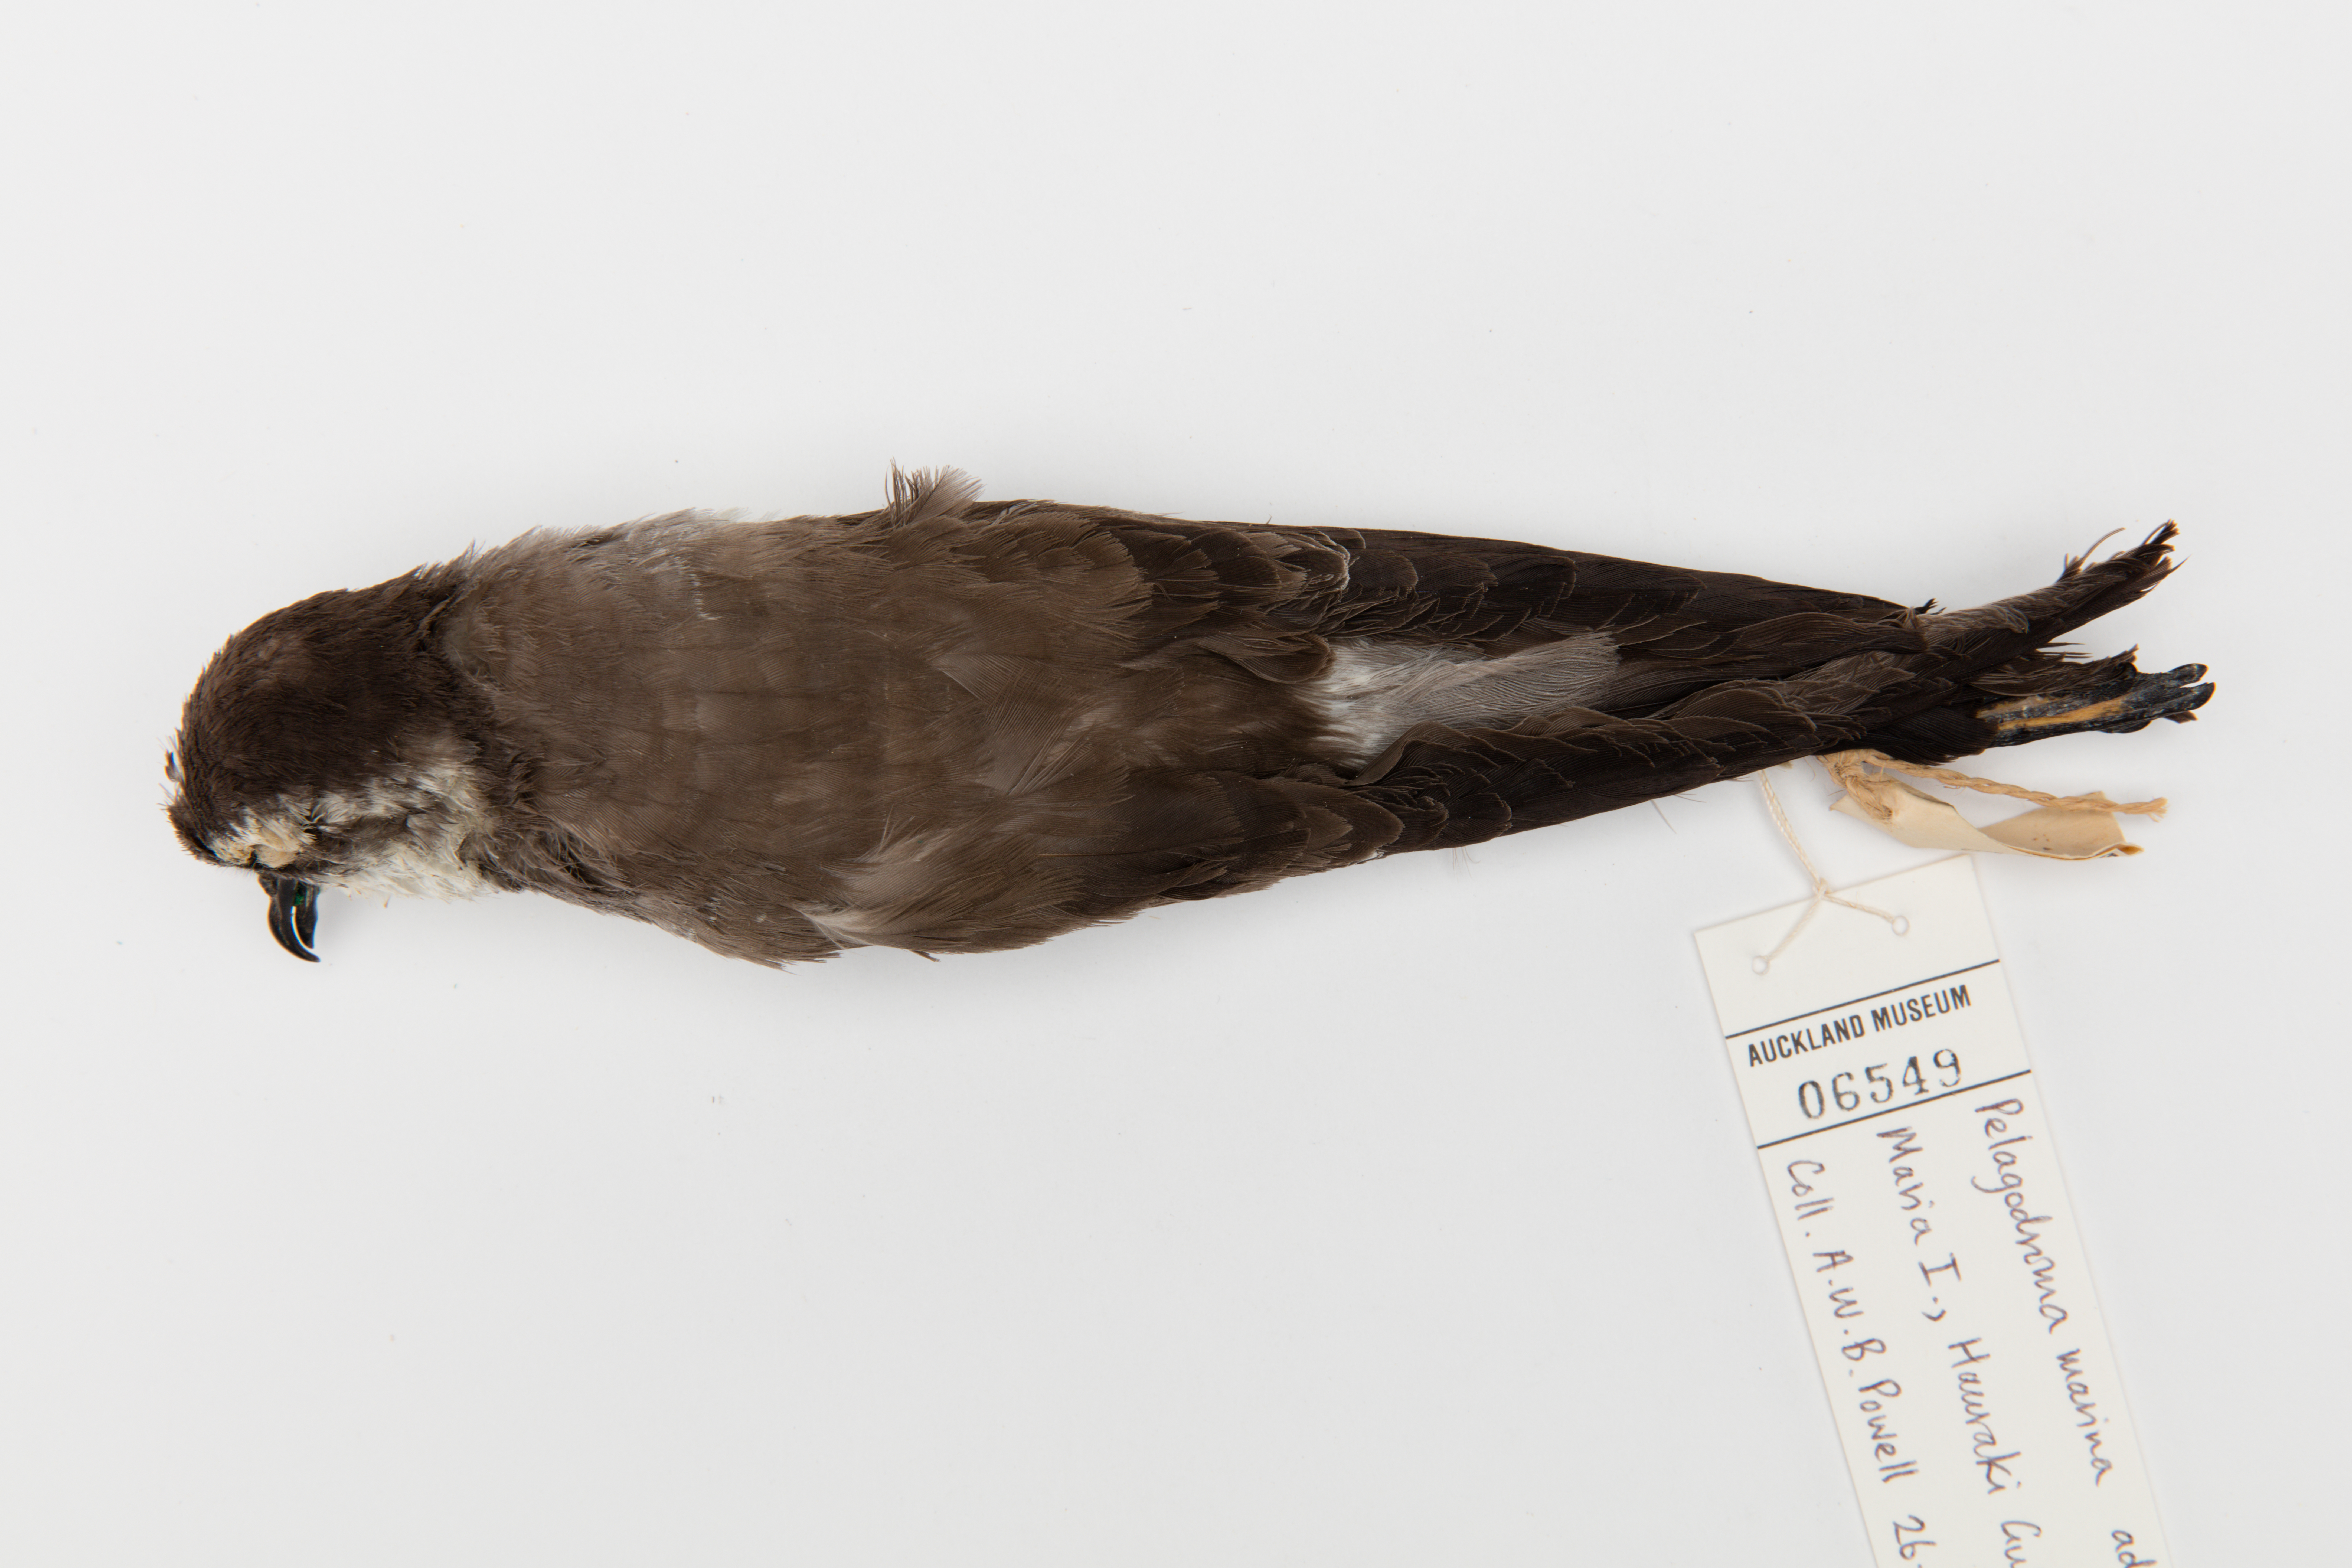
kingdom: Animalia
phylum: Chordata
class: Aves
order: Procellariiformes
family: Hydrobatidae
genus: Pelagodroma
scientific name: Pelagodroma marina
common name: White-faced storm-petrel
